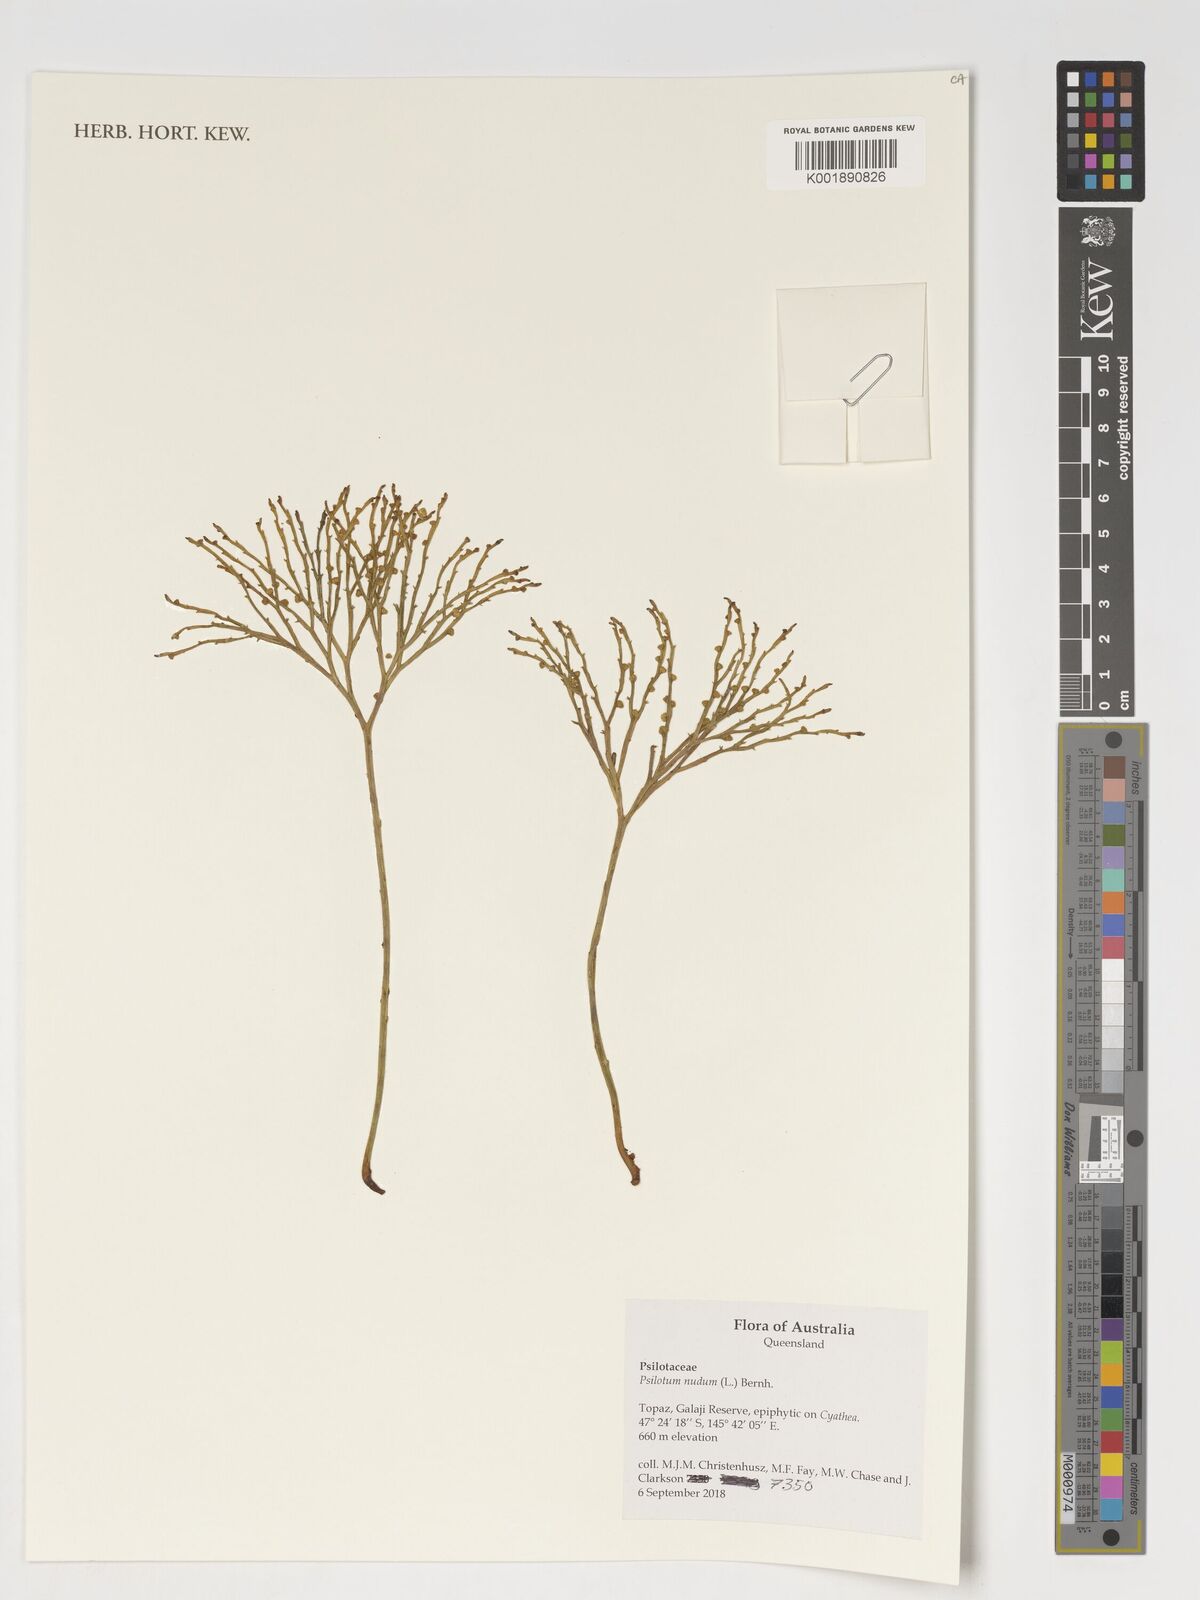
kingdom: Plantae
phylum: Tracheophyta
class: Polypodiopsida
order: Psilotales
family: Psilotaceae
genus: Psilotum
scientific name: Psilotum nudum
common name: Skeleton fork fern
